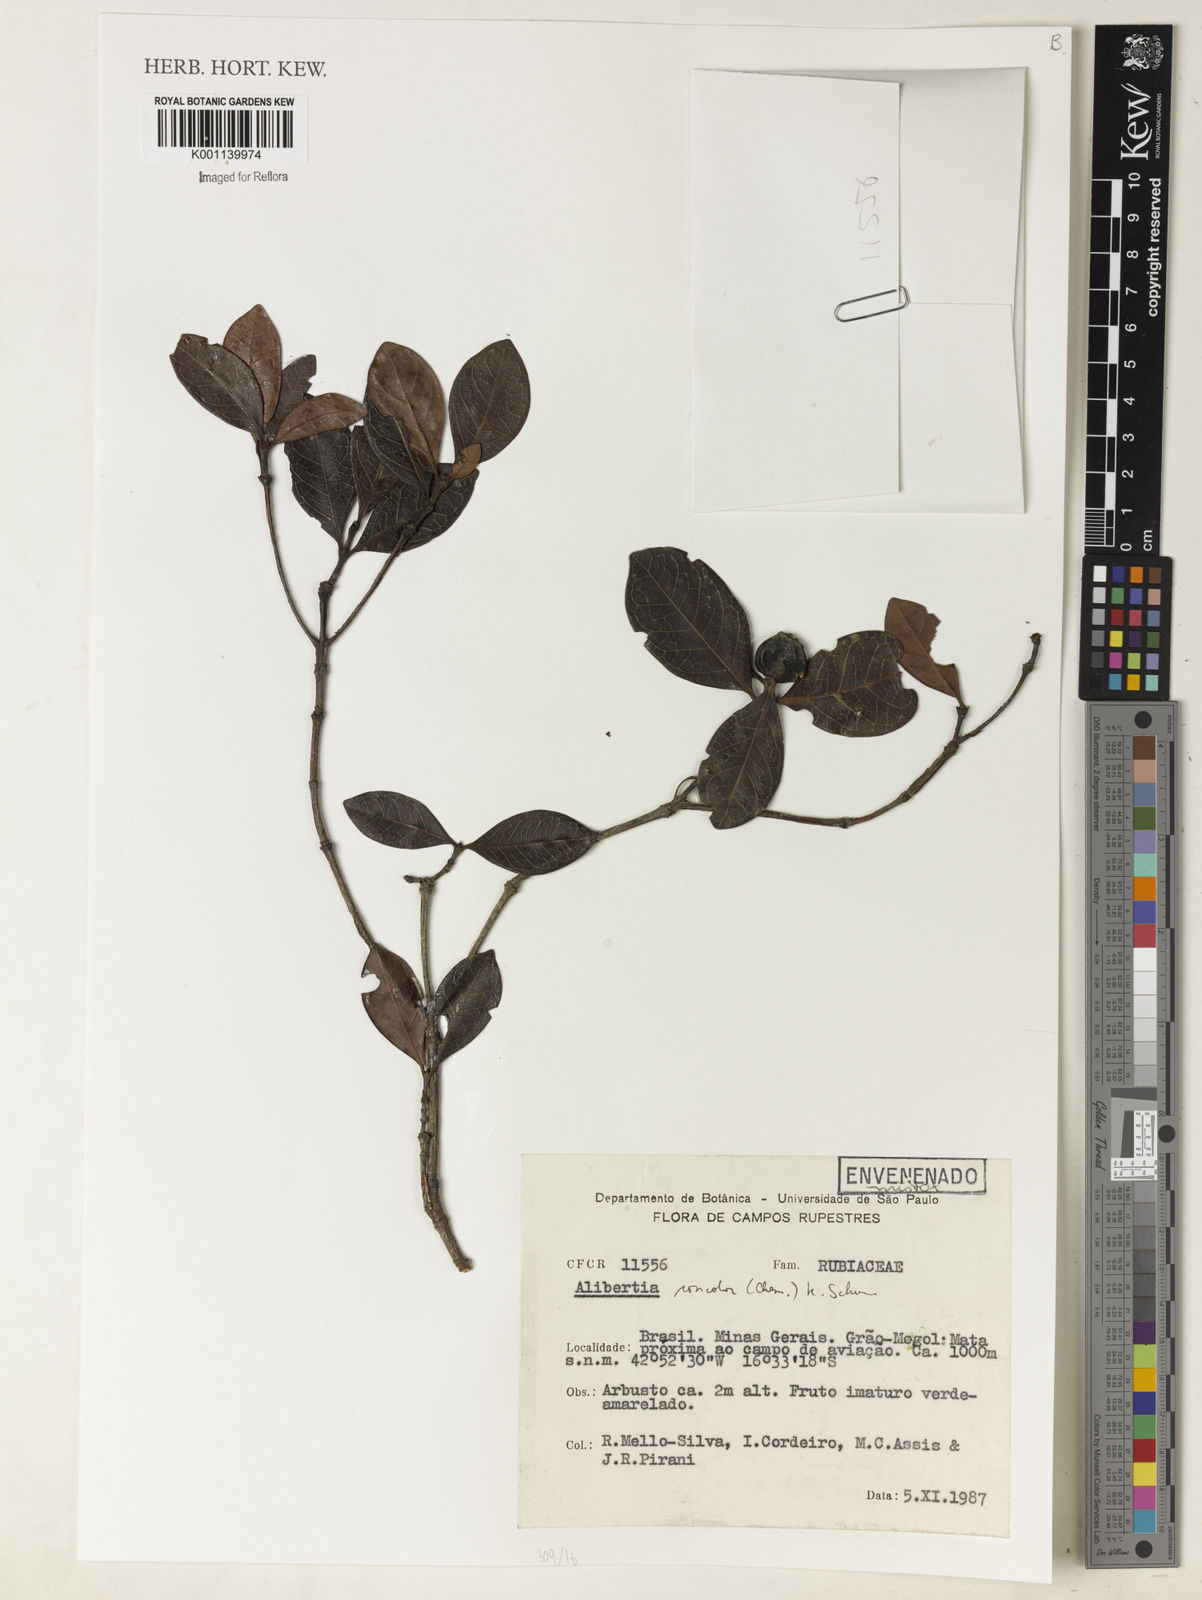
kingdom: Plantae
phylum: Tracheophyta
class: Magnoliopsida
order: Gentianales
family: Rubiaceae
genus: Cordiera
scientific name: Cordiera concolor
